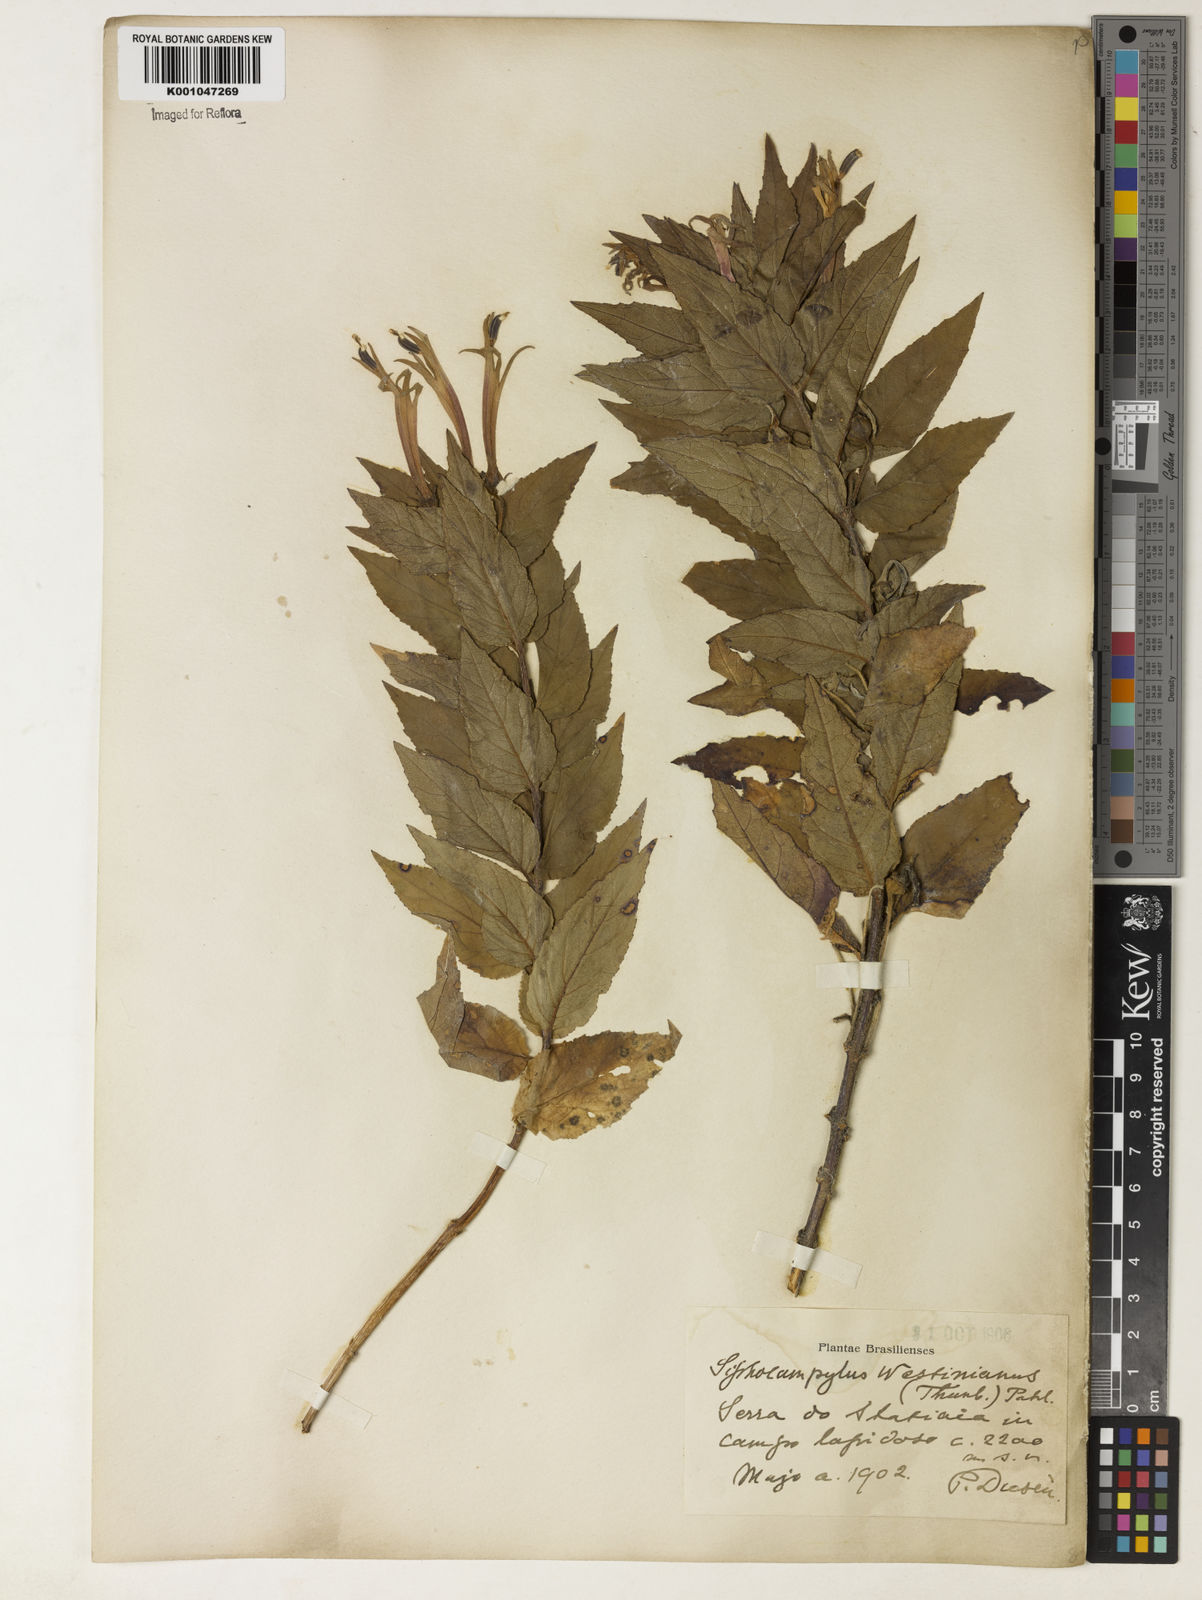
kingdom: Plantae
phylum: Tracheophyta
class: Magnoliopsida
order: Asterales
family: Campanulaceae
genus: Siphocampylus
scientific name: Siphocampylus westinianus
